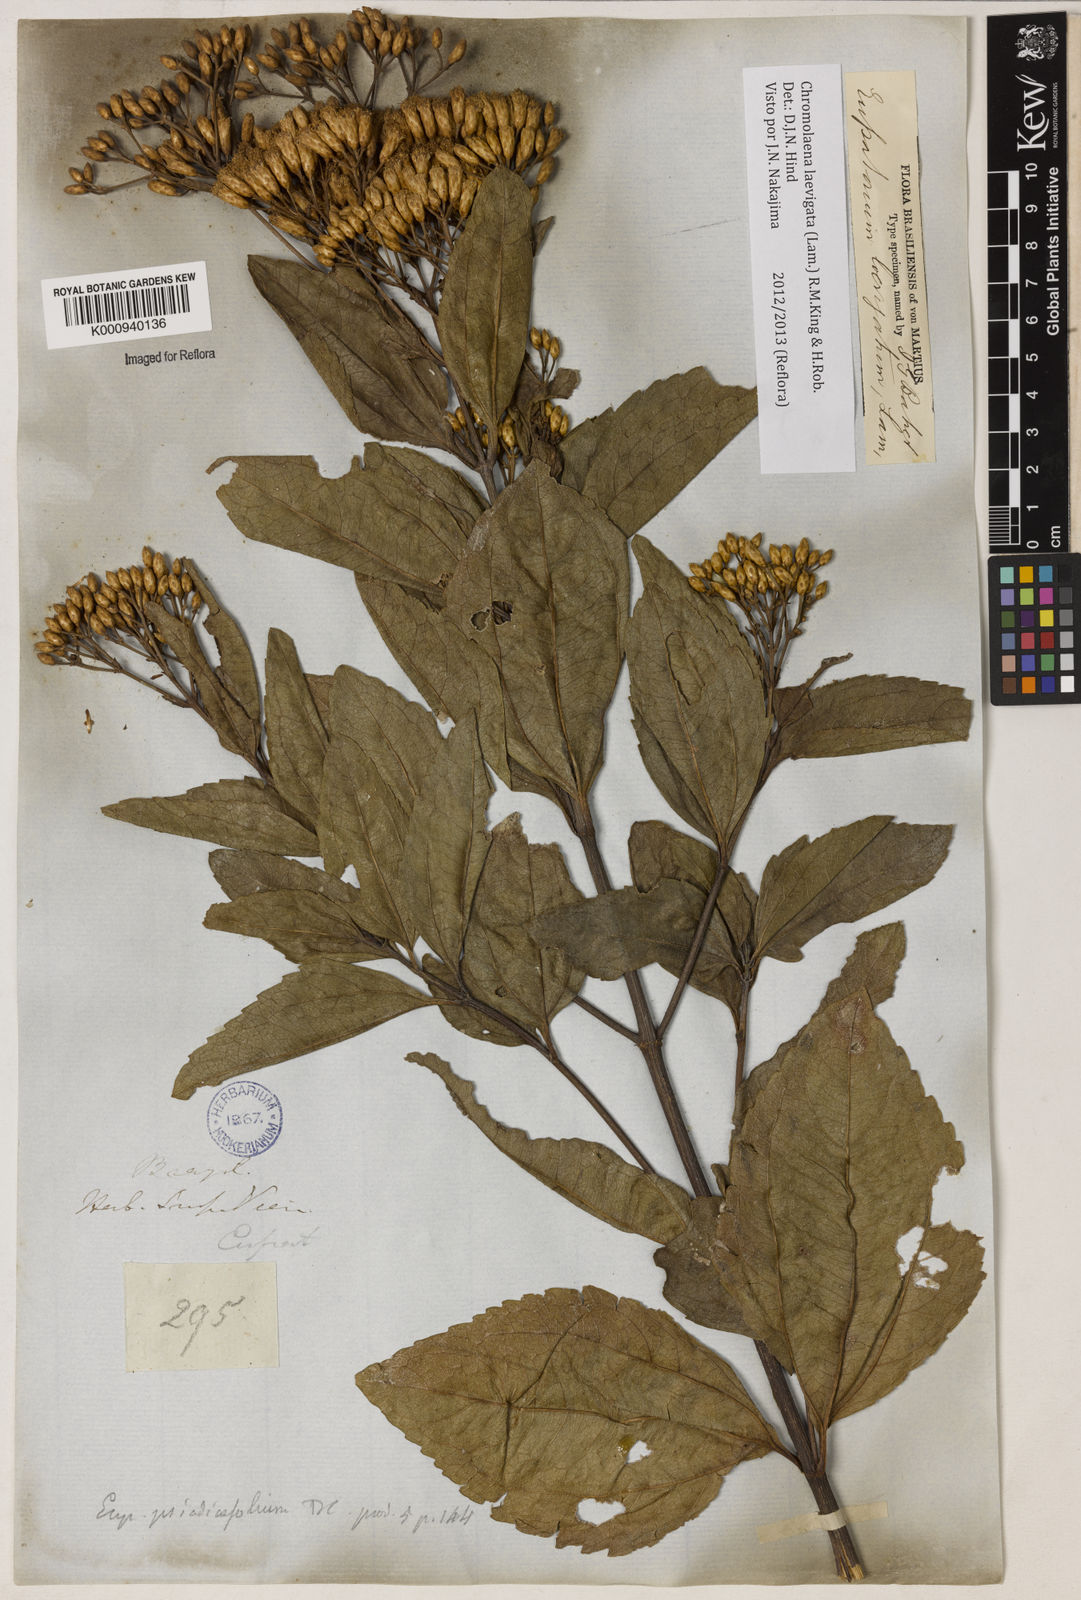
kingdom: Plantae
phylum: Tracheophyta
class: Magnoliopsida
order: Asterales
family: Asteraceae
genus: Chromolaena
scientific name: Chromolaena laevigata
